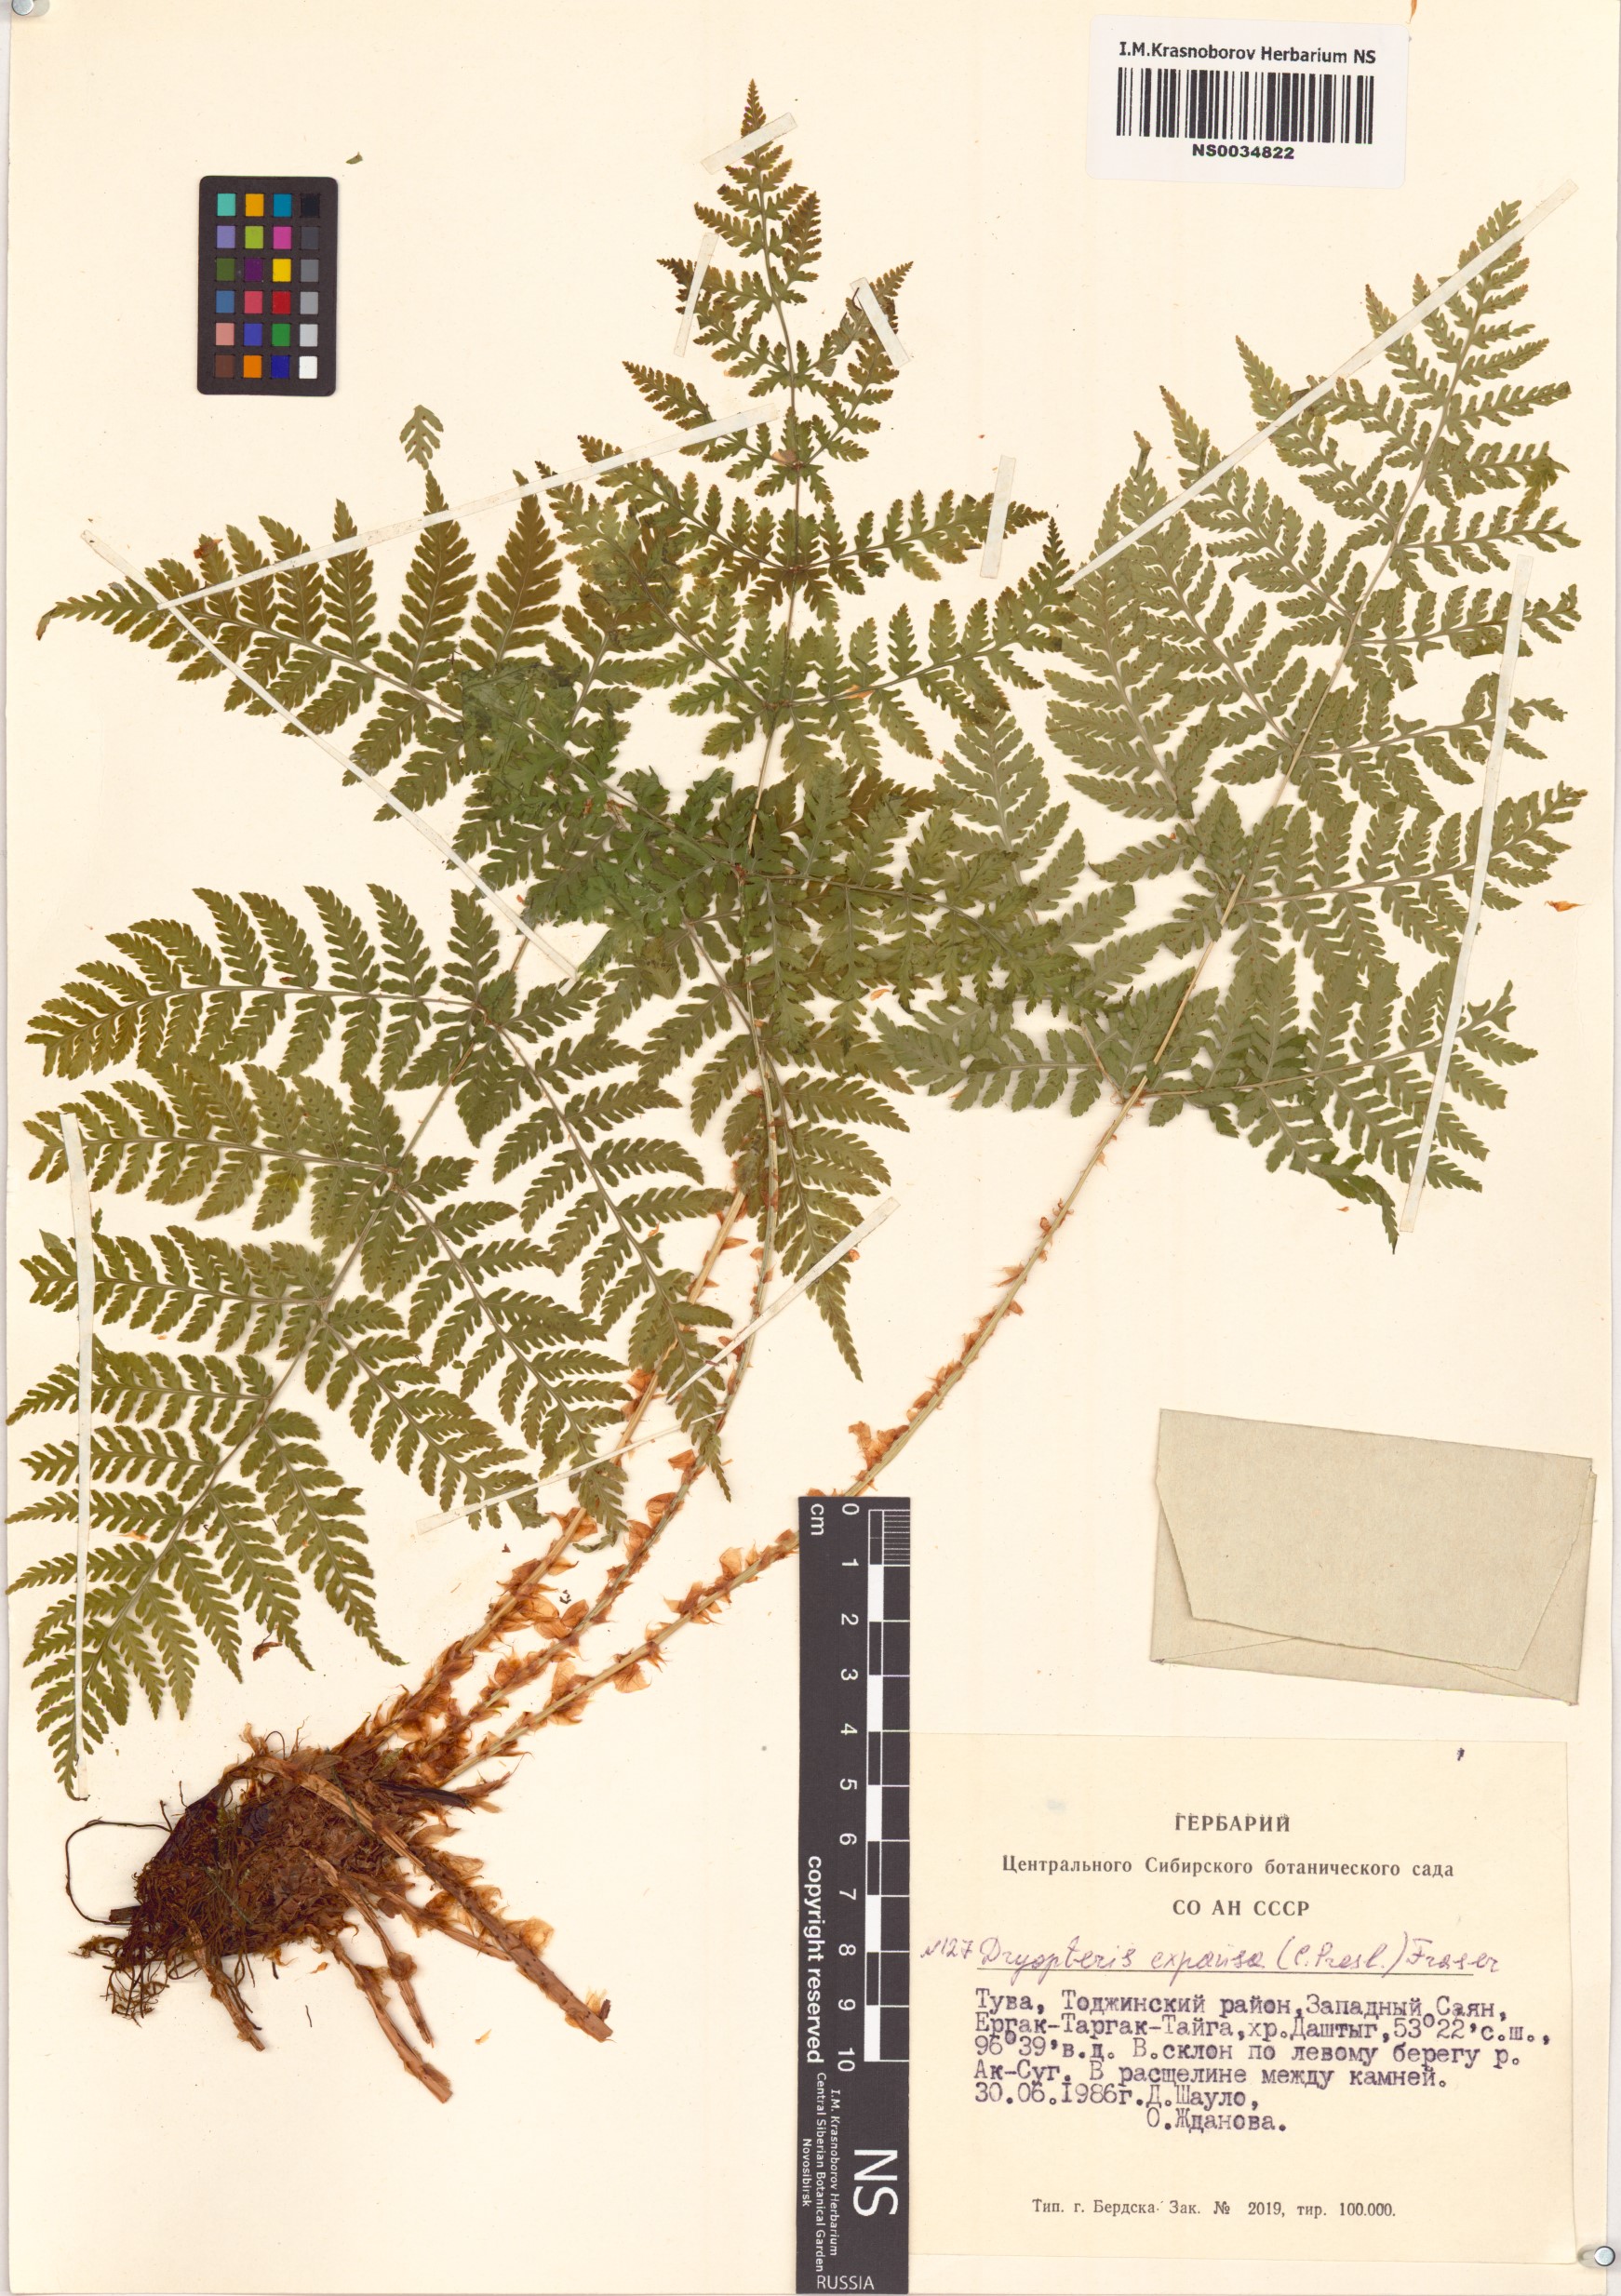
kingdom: Plantae
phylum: Tracheophyta
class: Polypodiopsida
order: Polypodiales
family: Dryopteridaceae
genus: Dryopteris
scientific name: Dryopteris expansa
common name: Northern buckler fern
